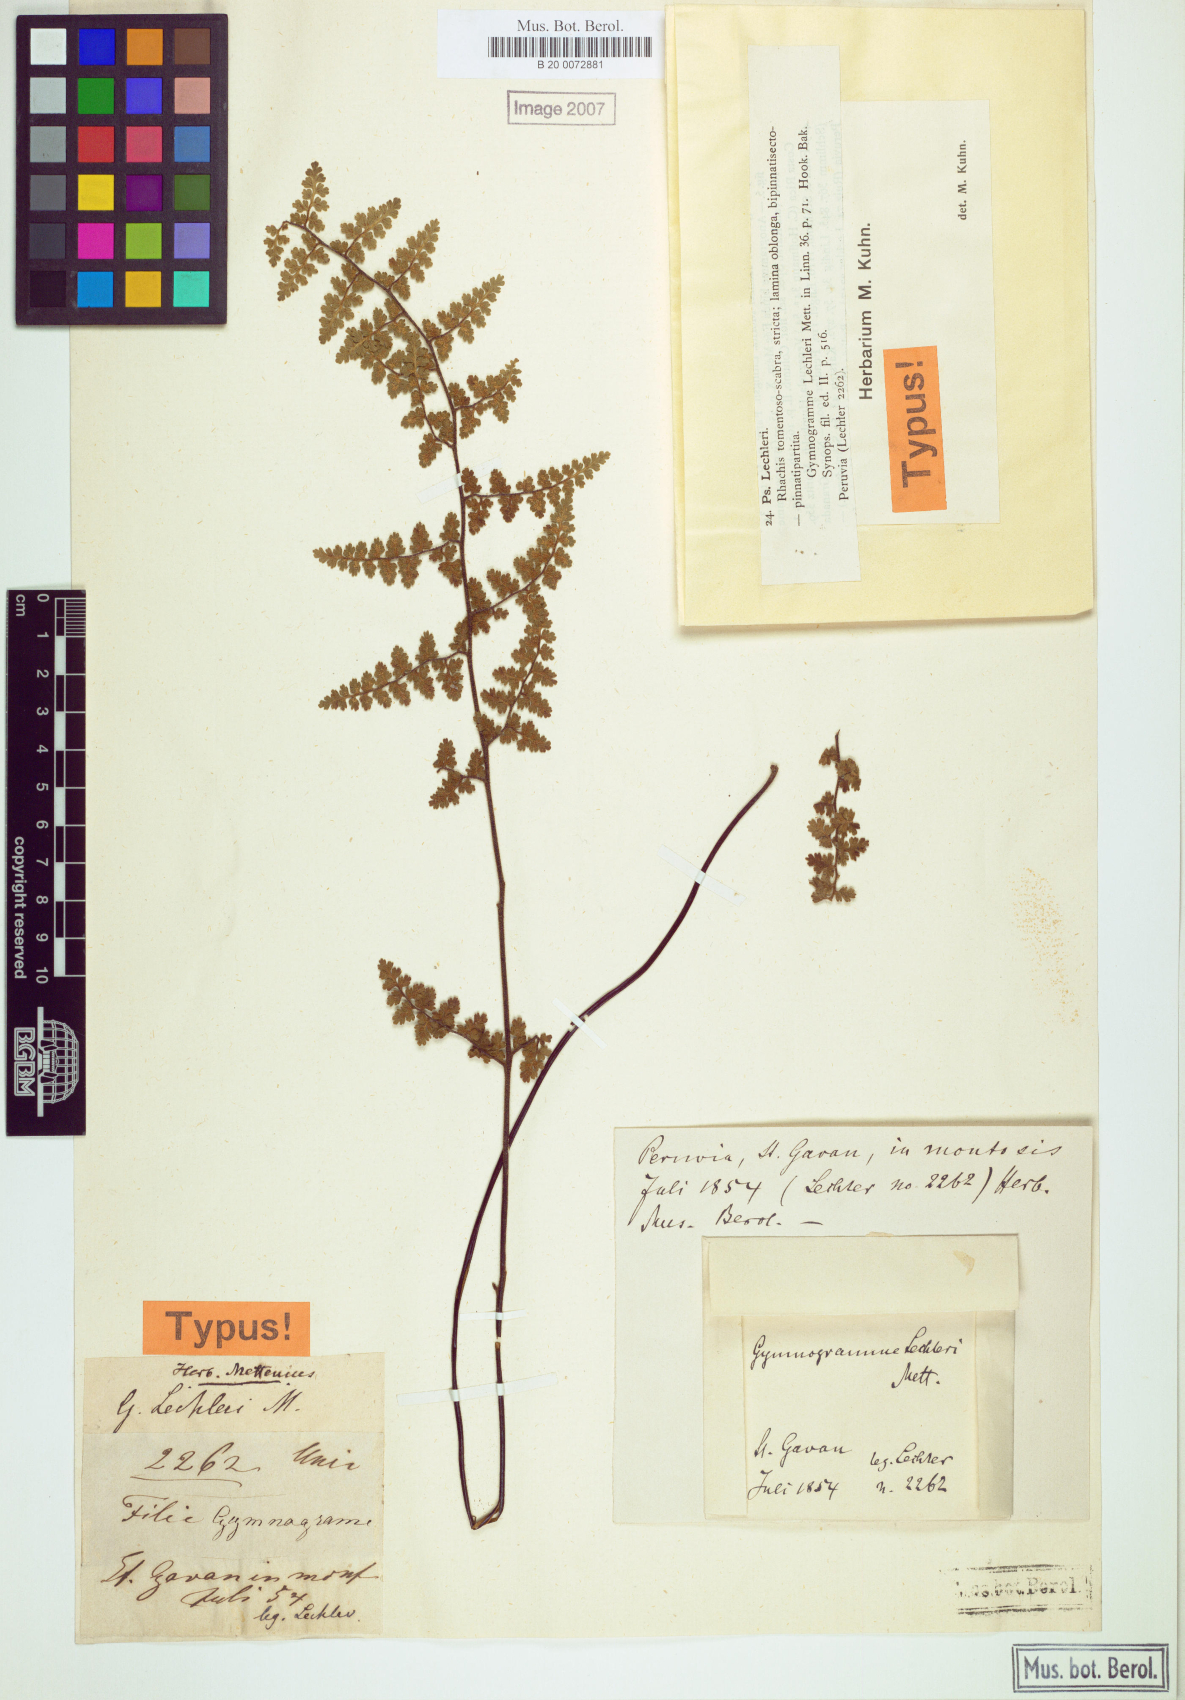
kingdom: Plantae
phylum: Tracheophyta
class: Polypodiopsida
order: Polypodiales
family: Pteridaceae
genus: Jamesonia
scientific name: Jamesonia lechleri
